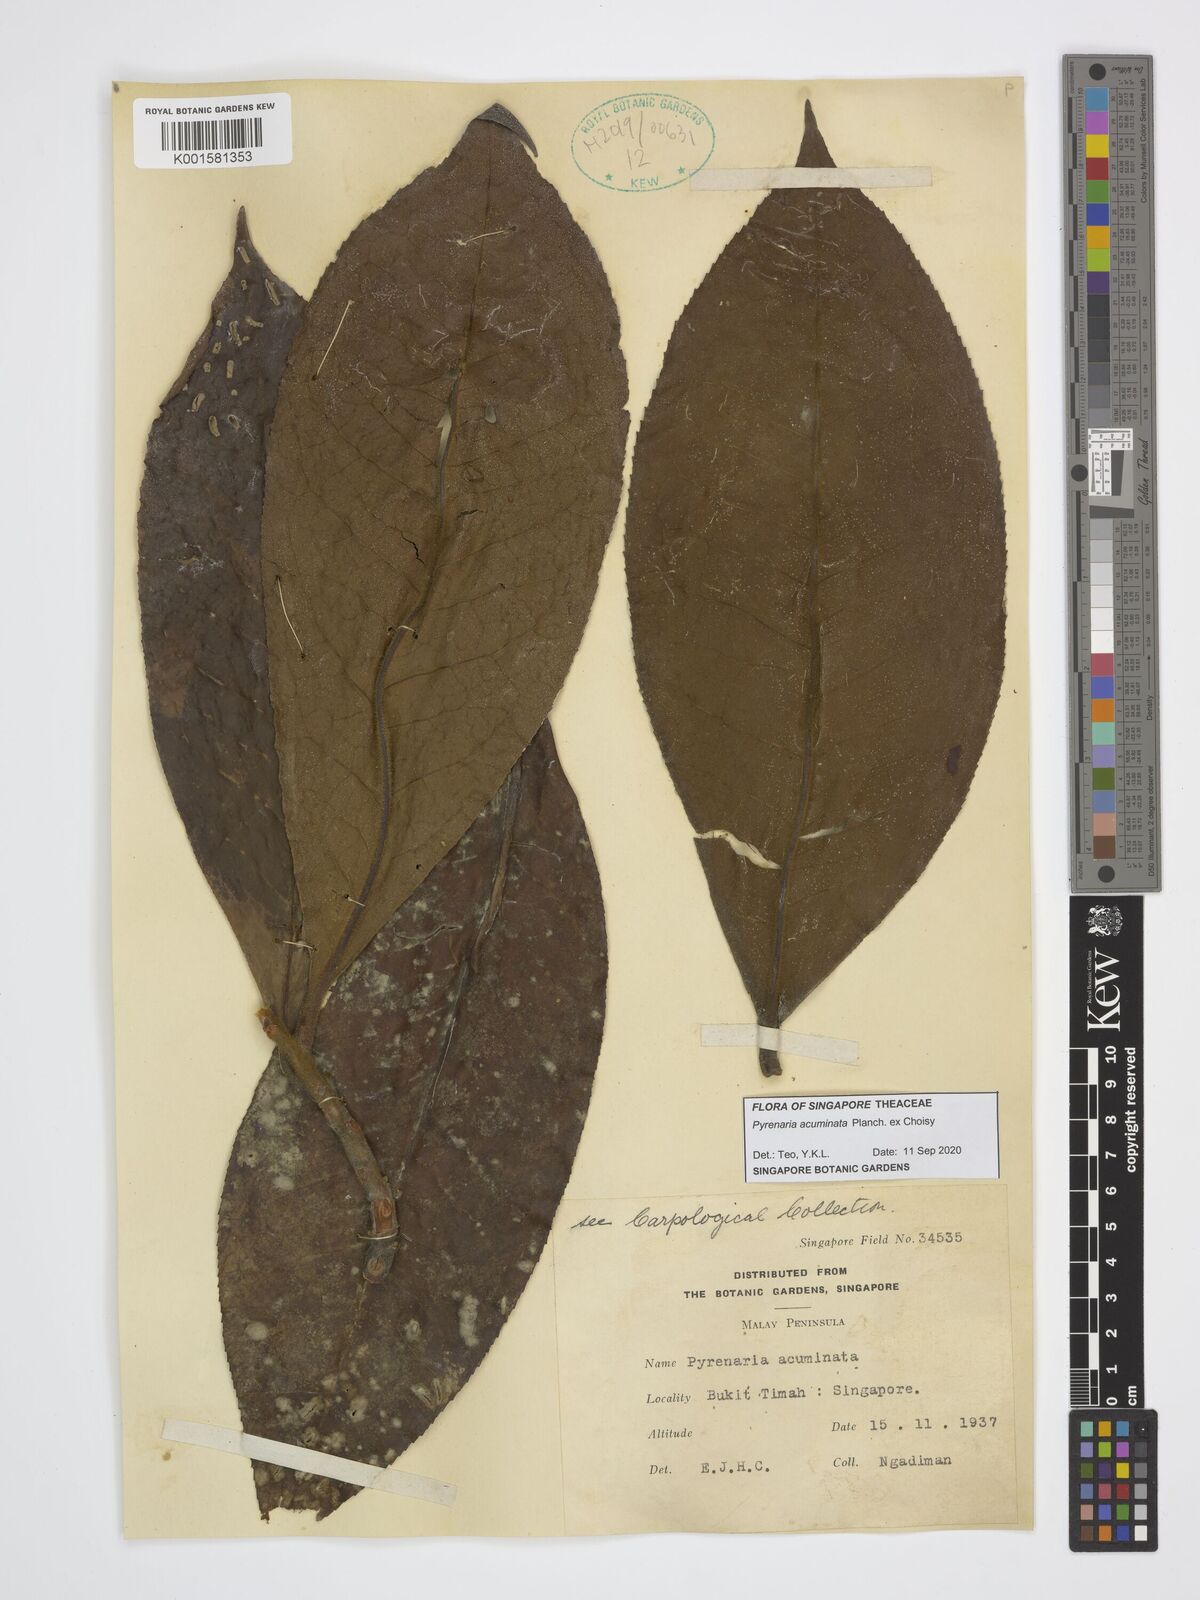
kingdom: Plantae
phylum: Tracheophyta
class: Magnoliopsida
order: Ericales
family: Theaceae
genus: Pyrenaria
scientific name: Pyrenaria acuminata
